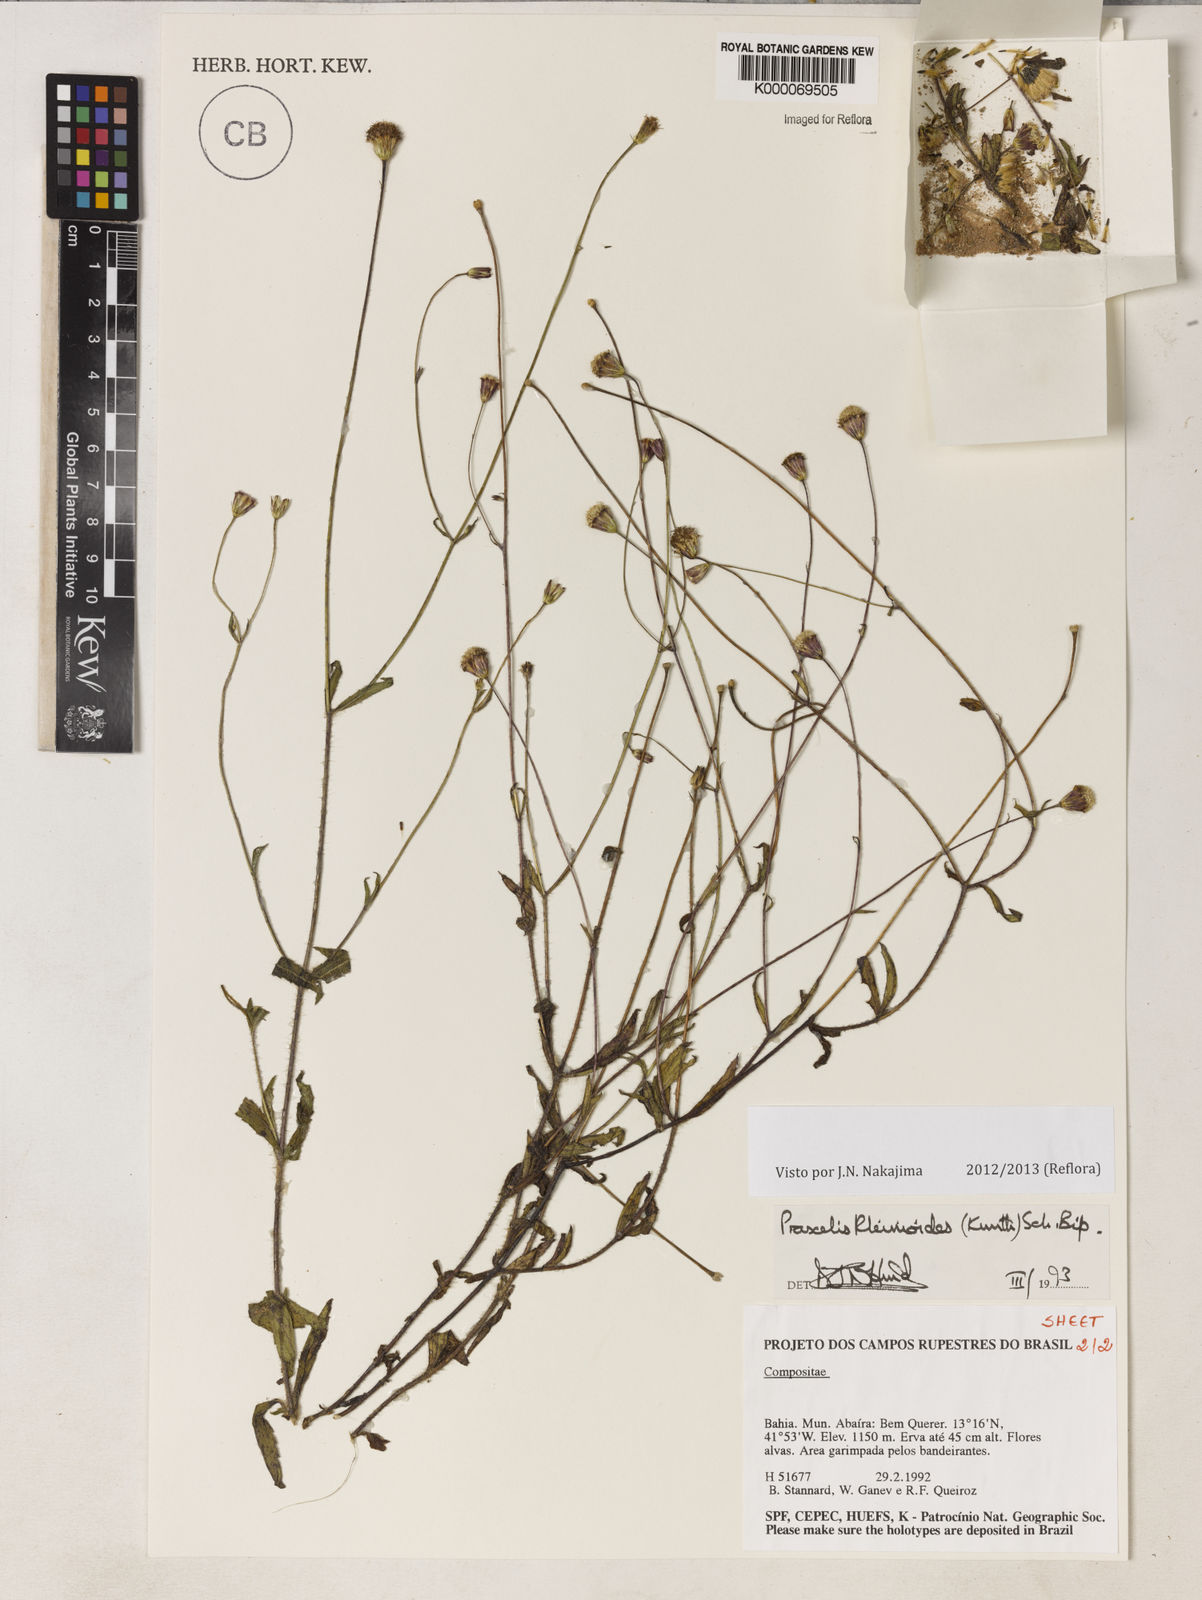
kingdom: Plantae
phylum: Tracheophyta
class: Magnoliopsida
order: Asterales
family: Asteraceae
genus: Praxelis
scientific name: Praxelis kleinioides
